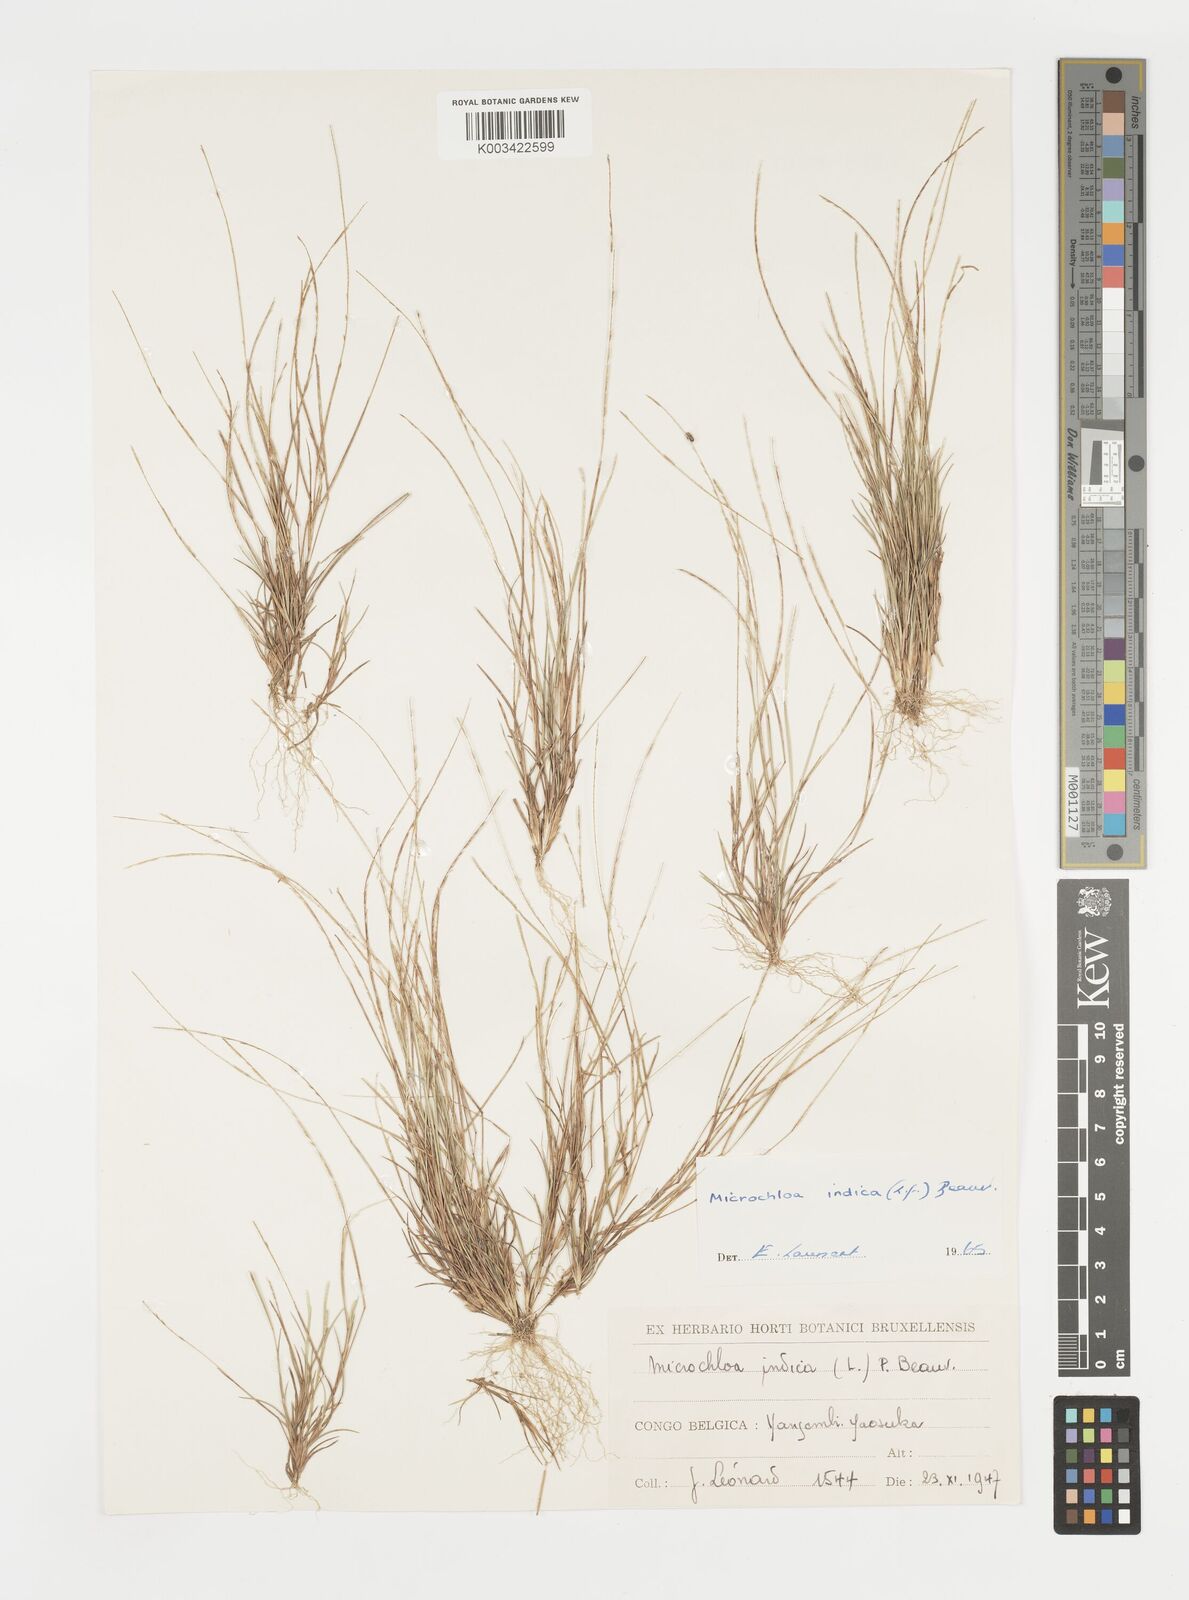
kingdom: Plantae
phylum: Tracheophyta
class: Liliopsida
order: Poales
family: Poaceae
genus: Microchloa
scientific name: Microchloa indica
